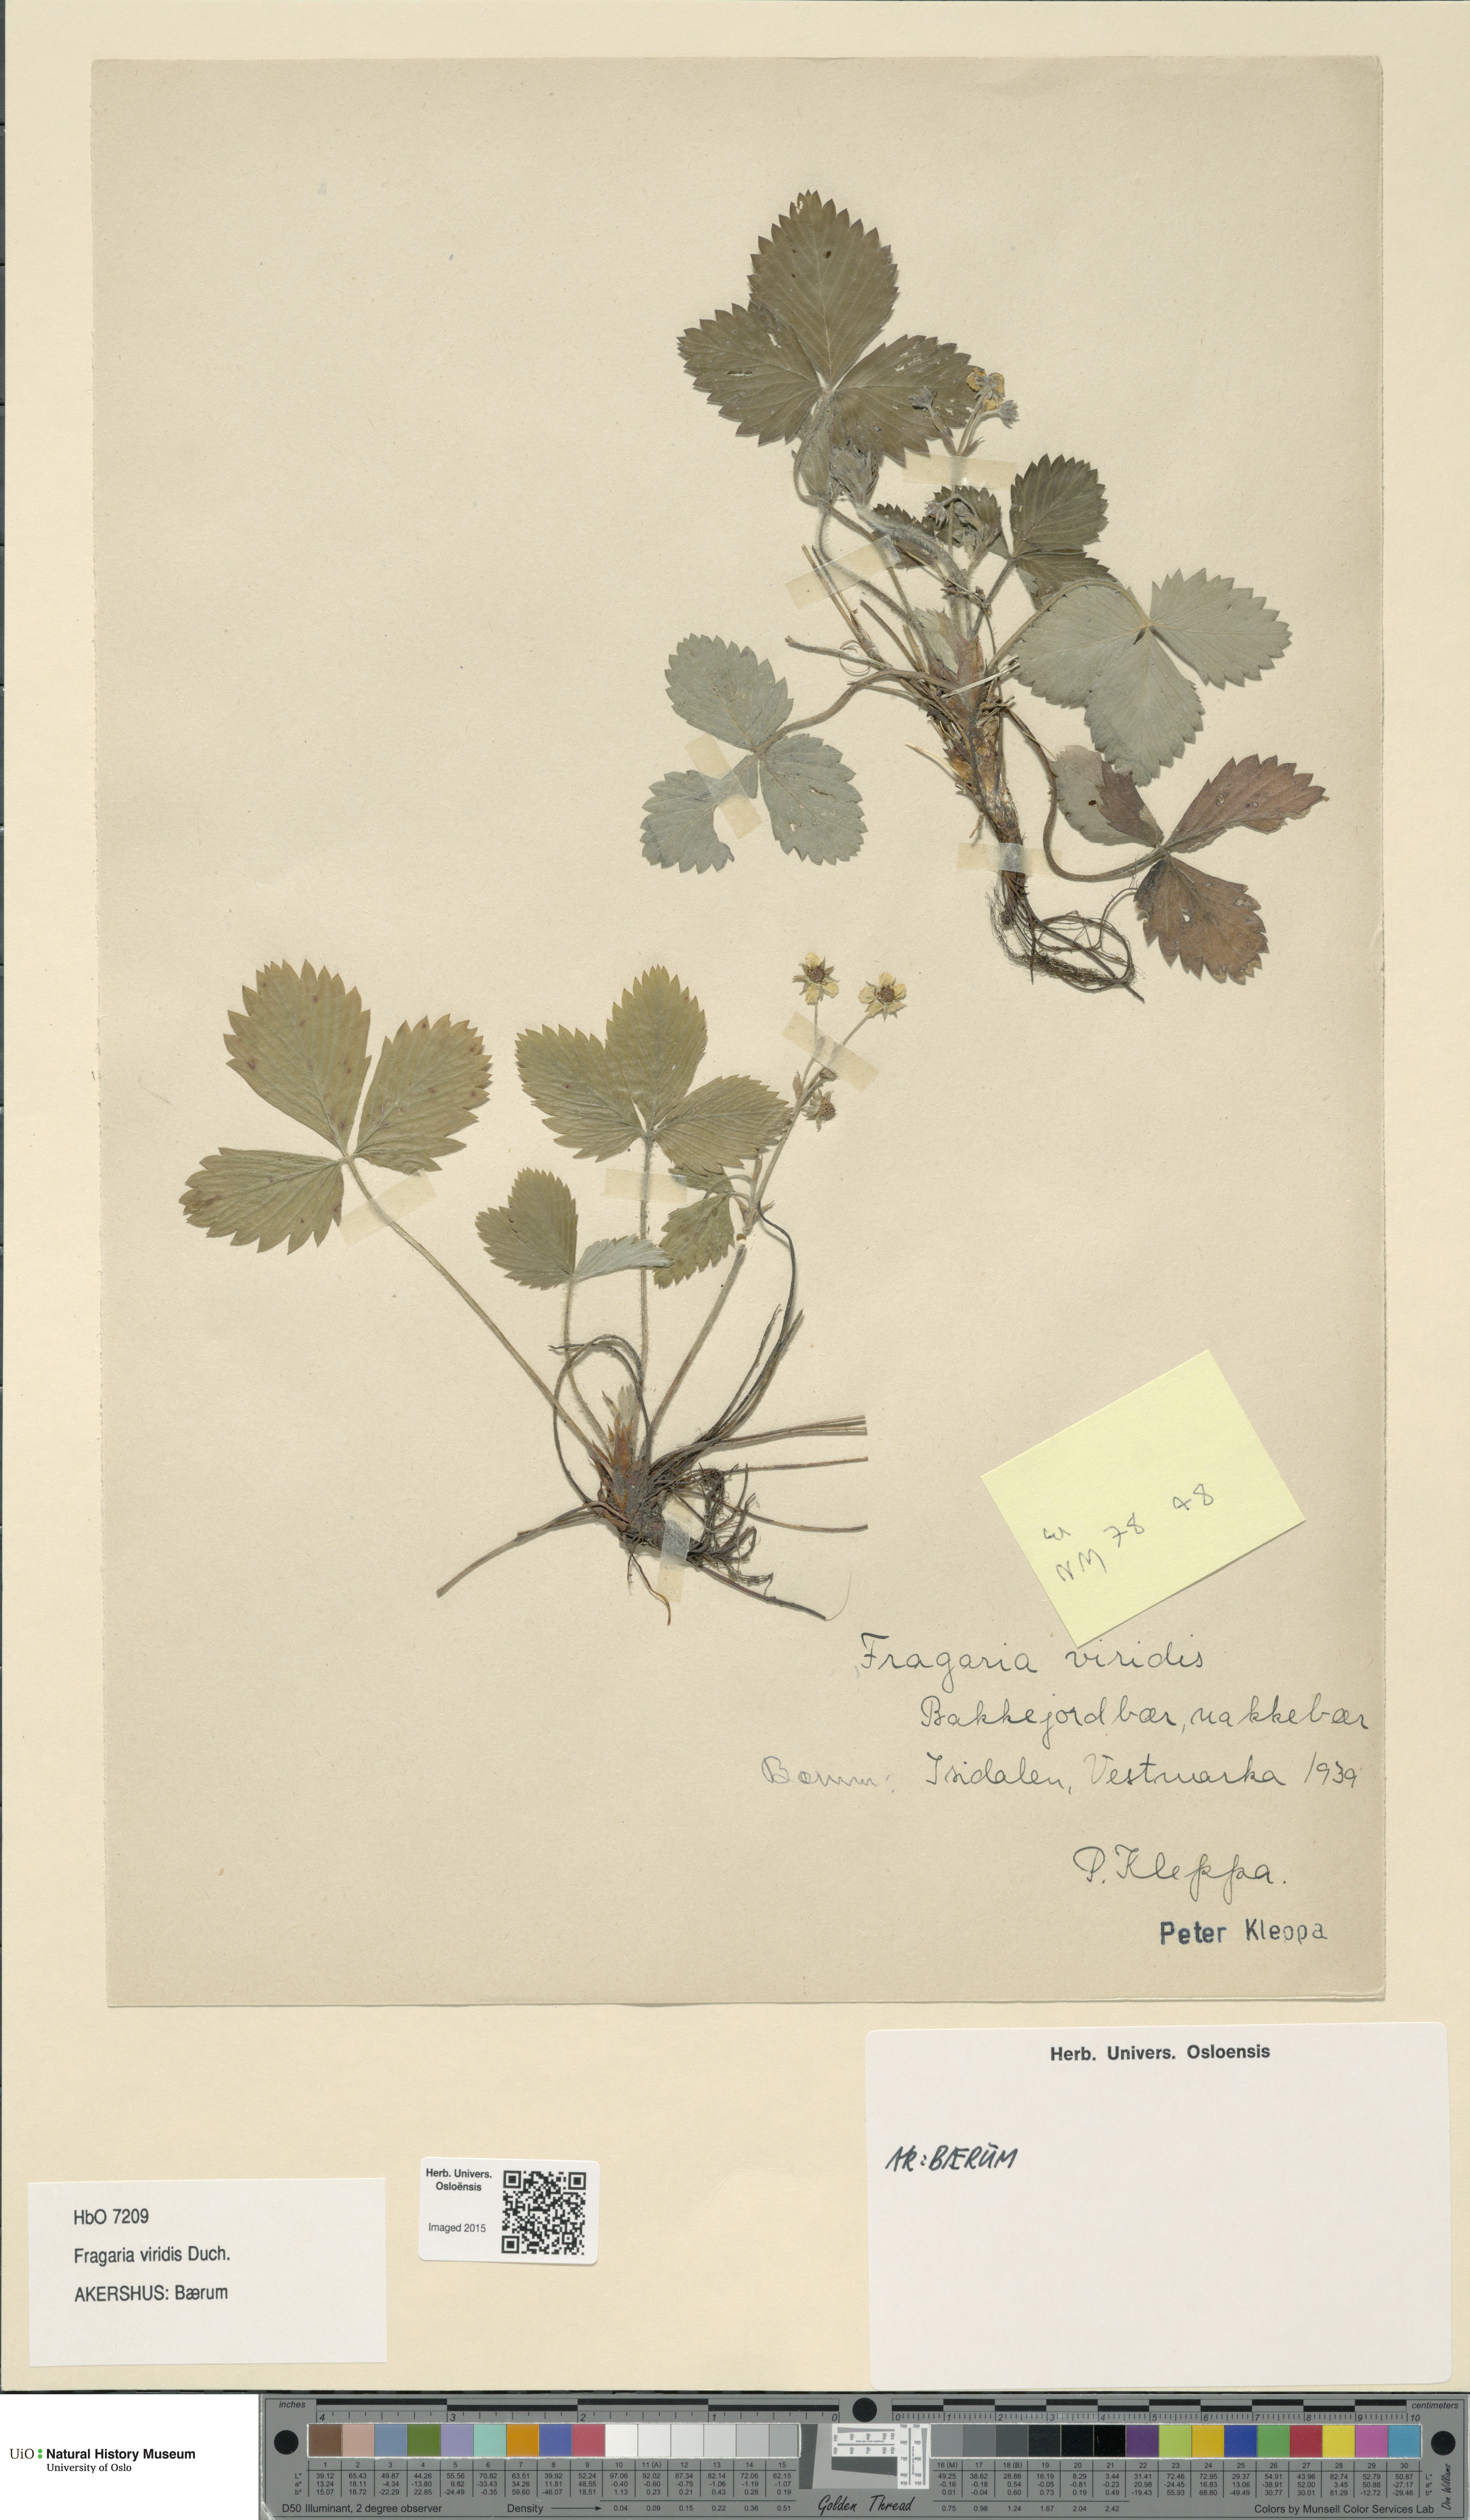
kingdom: Plantae
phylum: Tracheophyta
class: Magnoliopsida
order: Rosales
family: Rosaceae
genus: Fragaria
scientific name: Fragaria viridis
